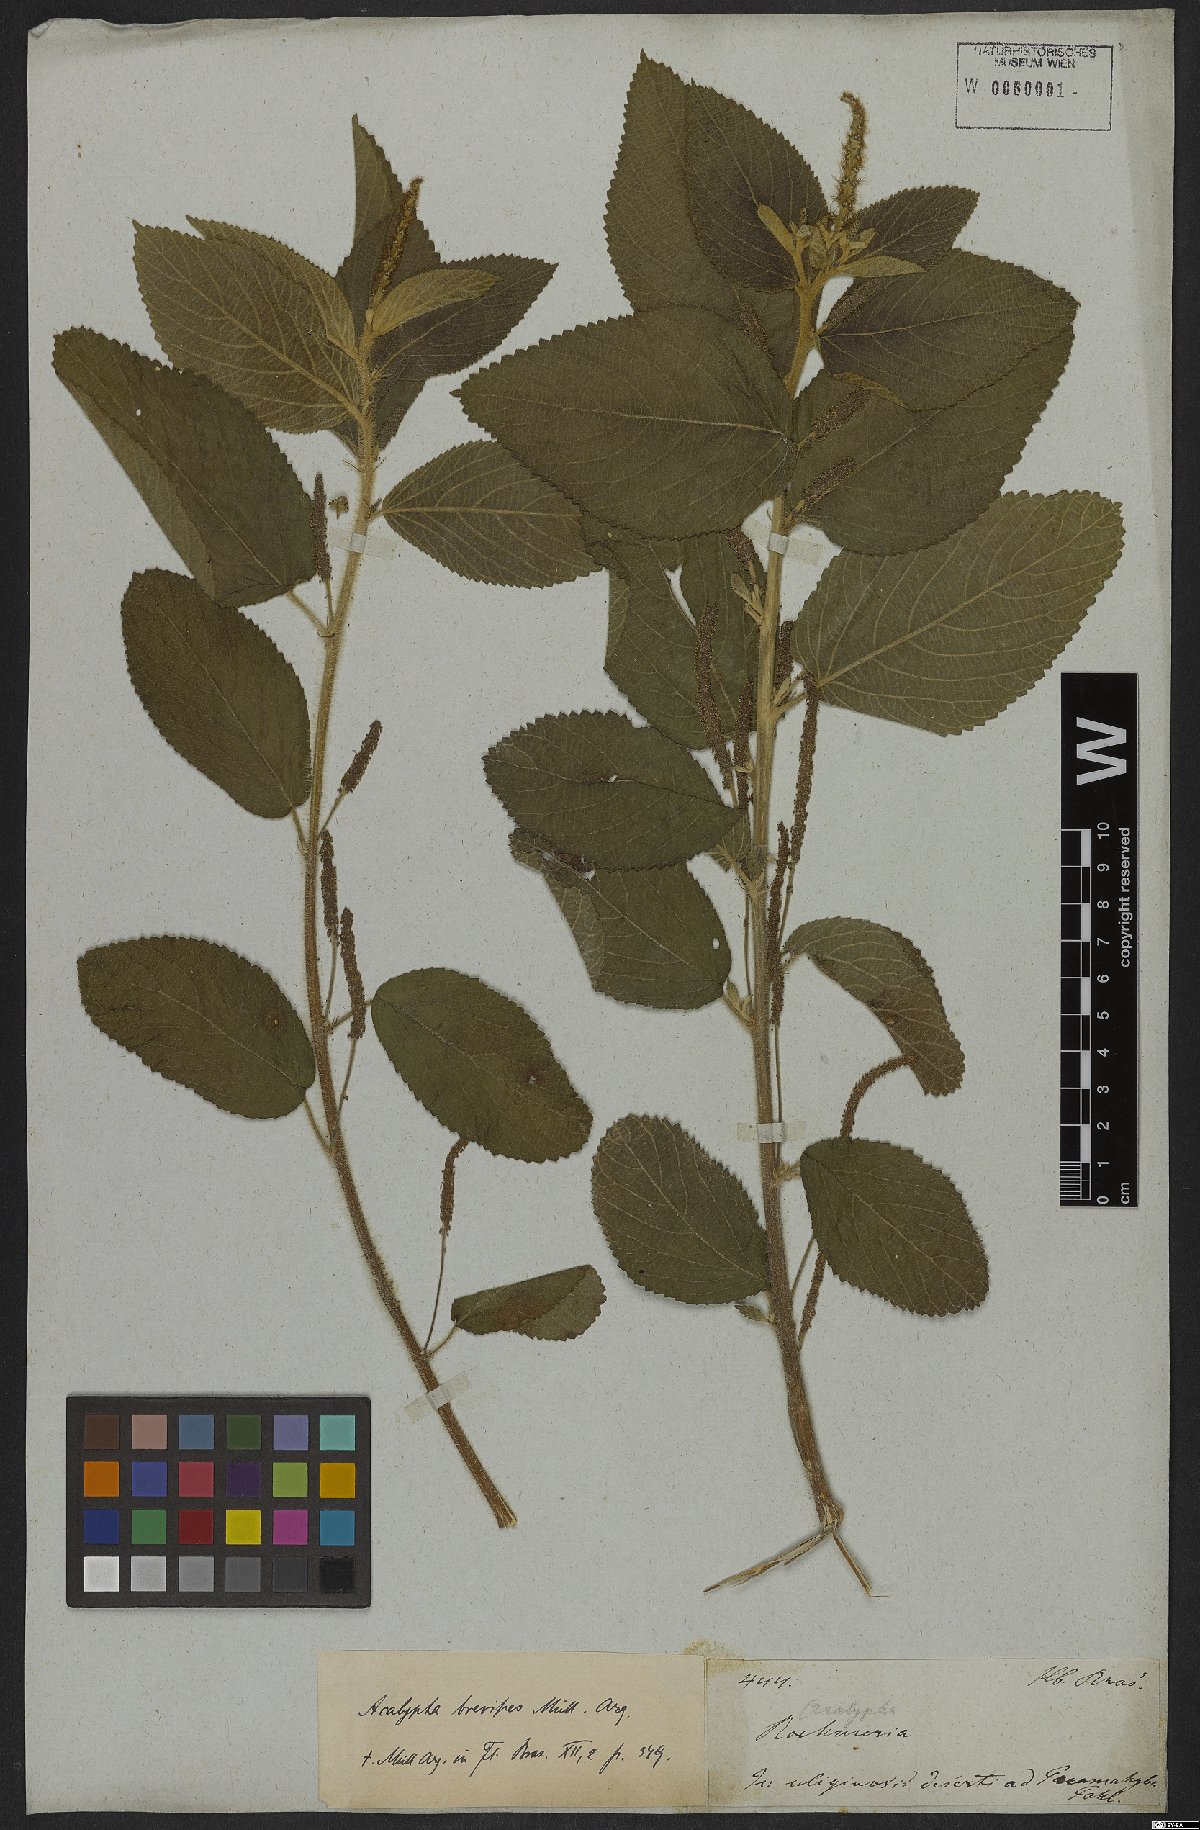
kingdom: Plantae
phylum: Tracheophyta
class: Magnoliopsida
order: Malpighiales
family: Euphorbiaceae
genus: Acalypha
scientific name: Acalypha vellamea
